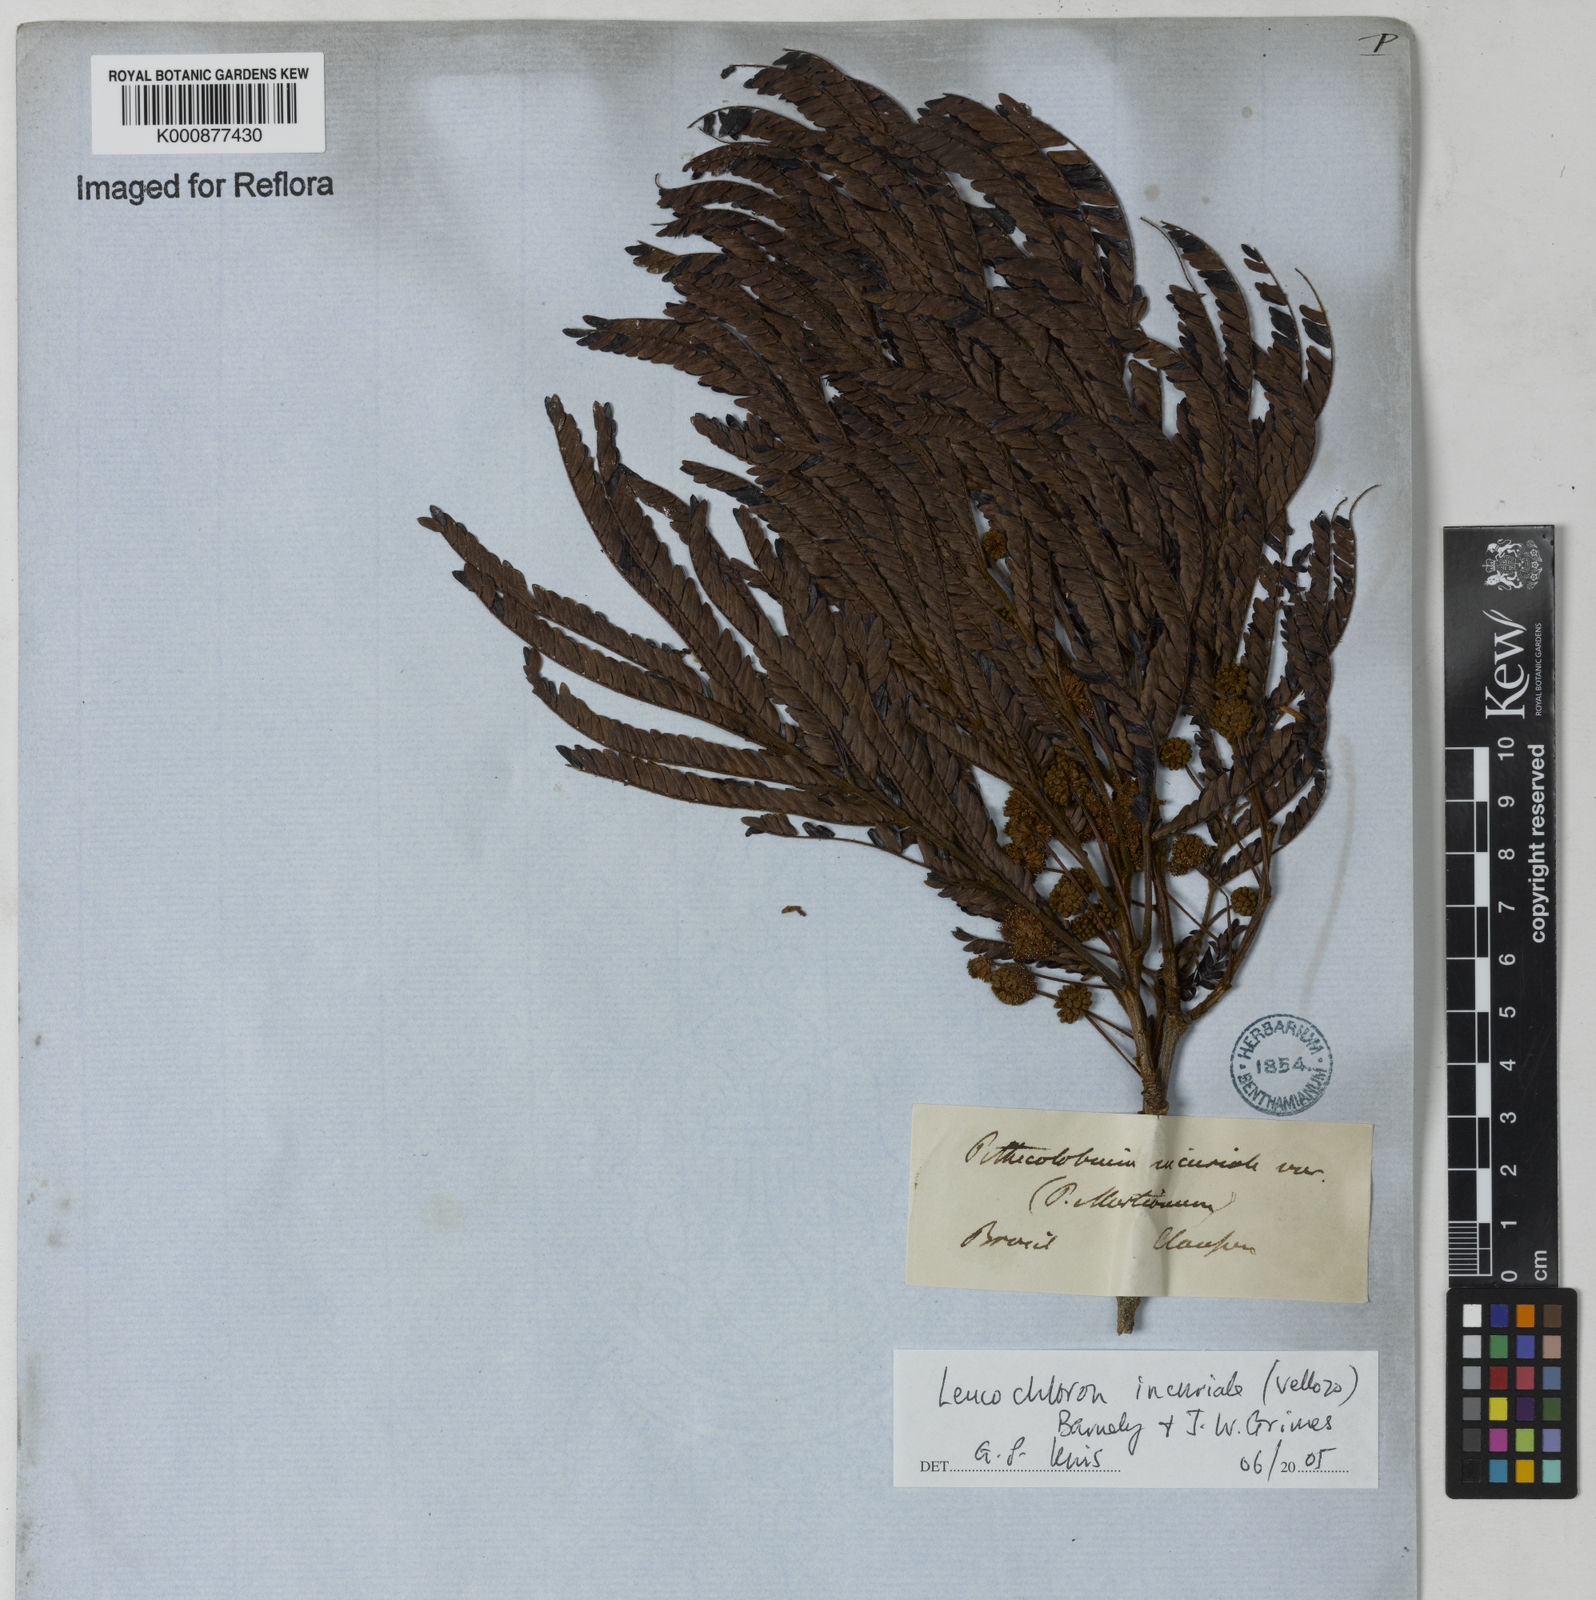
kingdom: Plantae
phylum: Tracheophyta
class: Magnoliopsida
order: Fabales
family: Fabaceae
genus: Leucochloron
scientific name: Leucochloron incuriale
